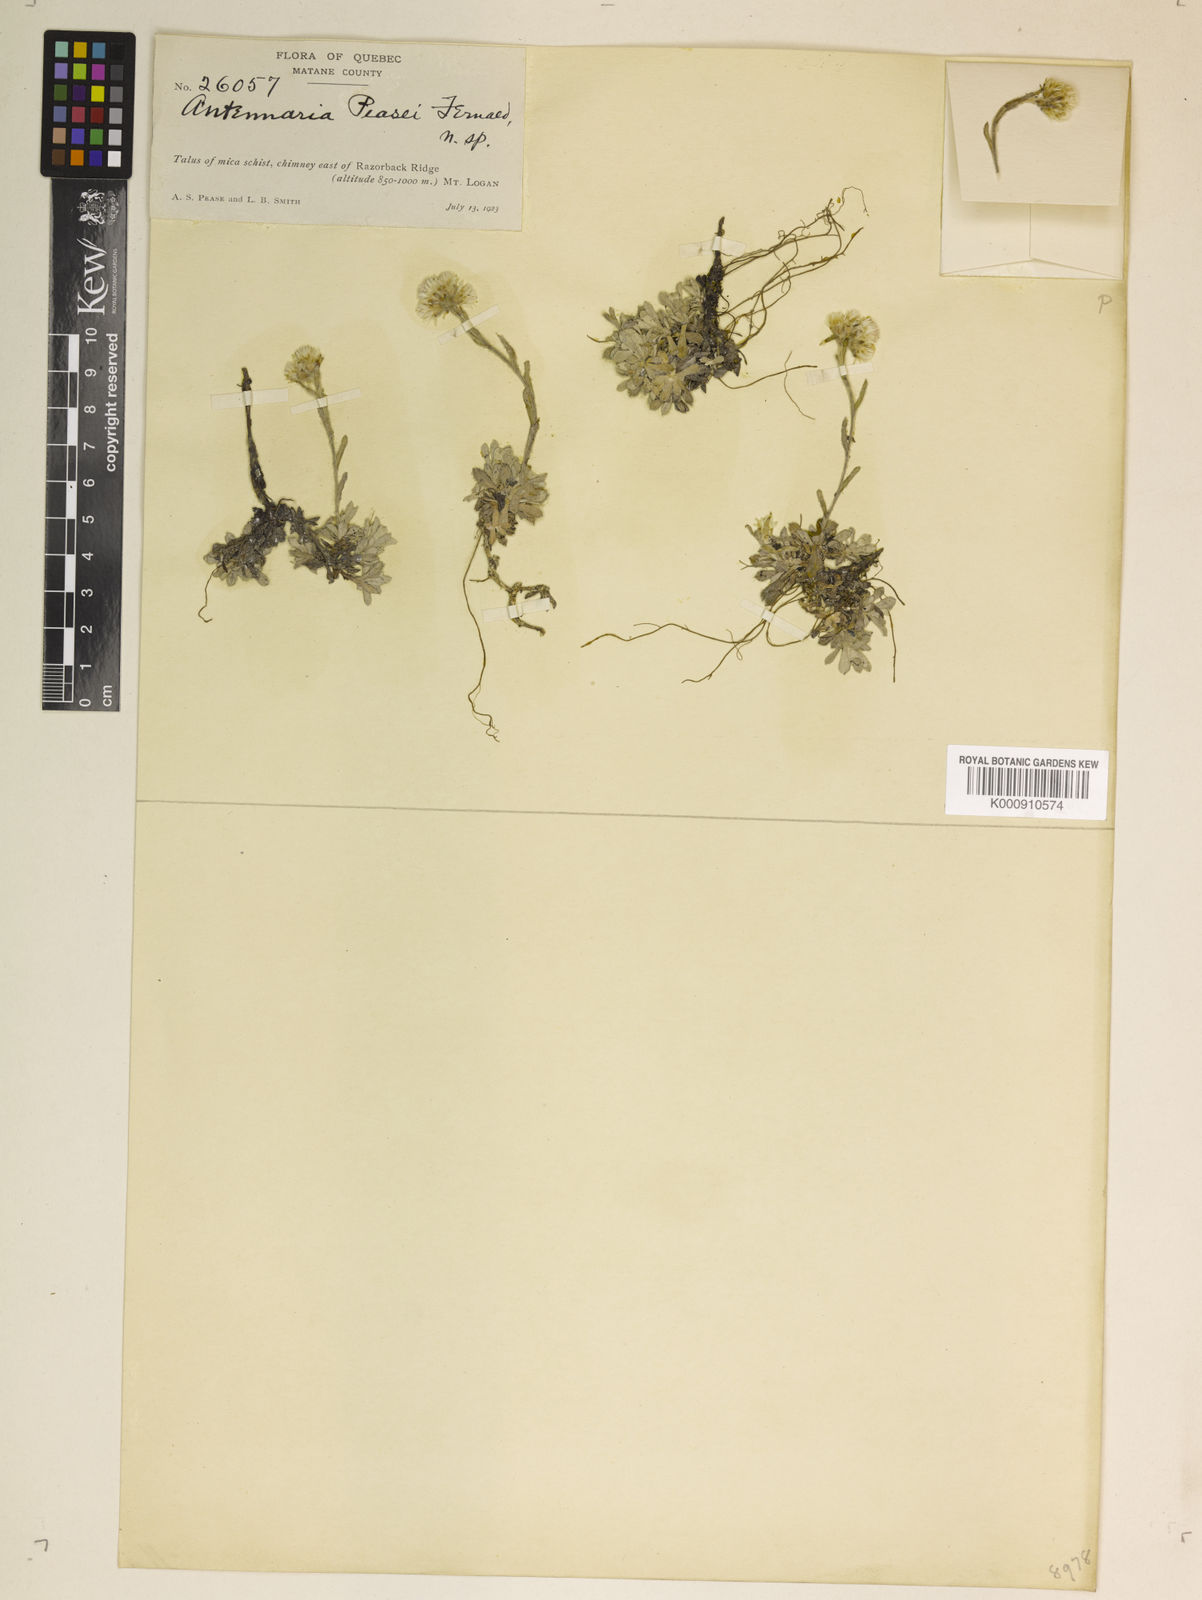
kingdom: Plantae
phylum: Tracheophyta
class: Magnoliopsida
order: Asterales
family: Asteraceae
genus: Antennaria
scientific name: Antennaria rosea
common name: Rosy pussytoes
